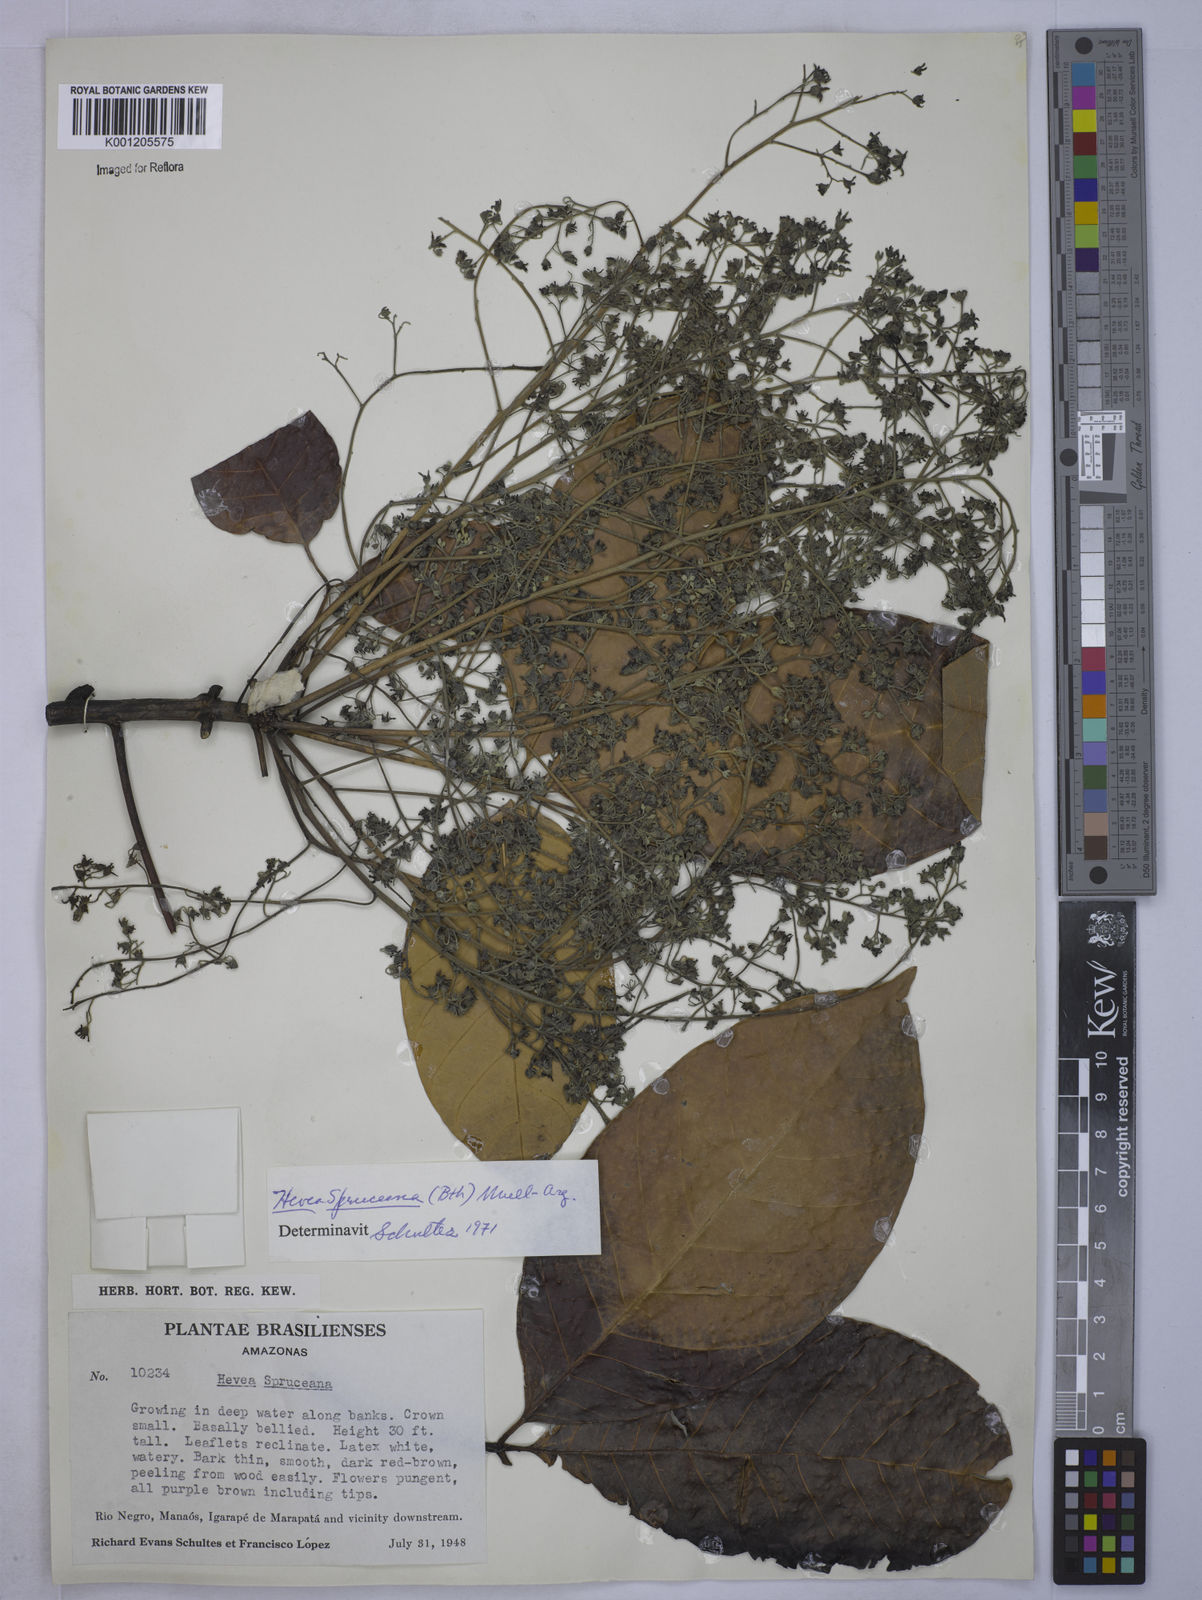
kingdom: Plantae
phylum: Tracheophyta
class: Magnoliopsida
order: Malpighiales
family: Euphorbiaceae
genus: Hevea
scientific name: Hevea
